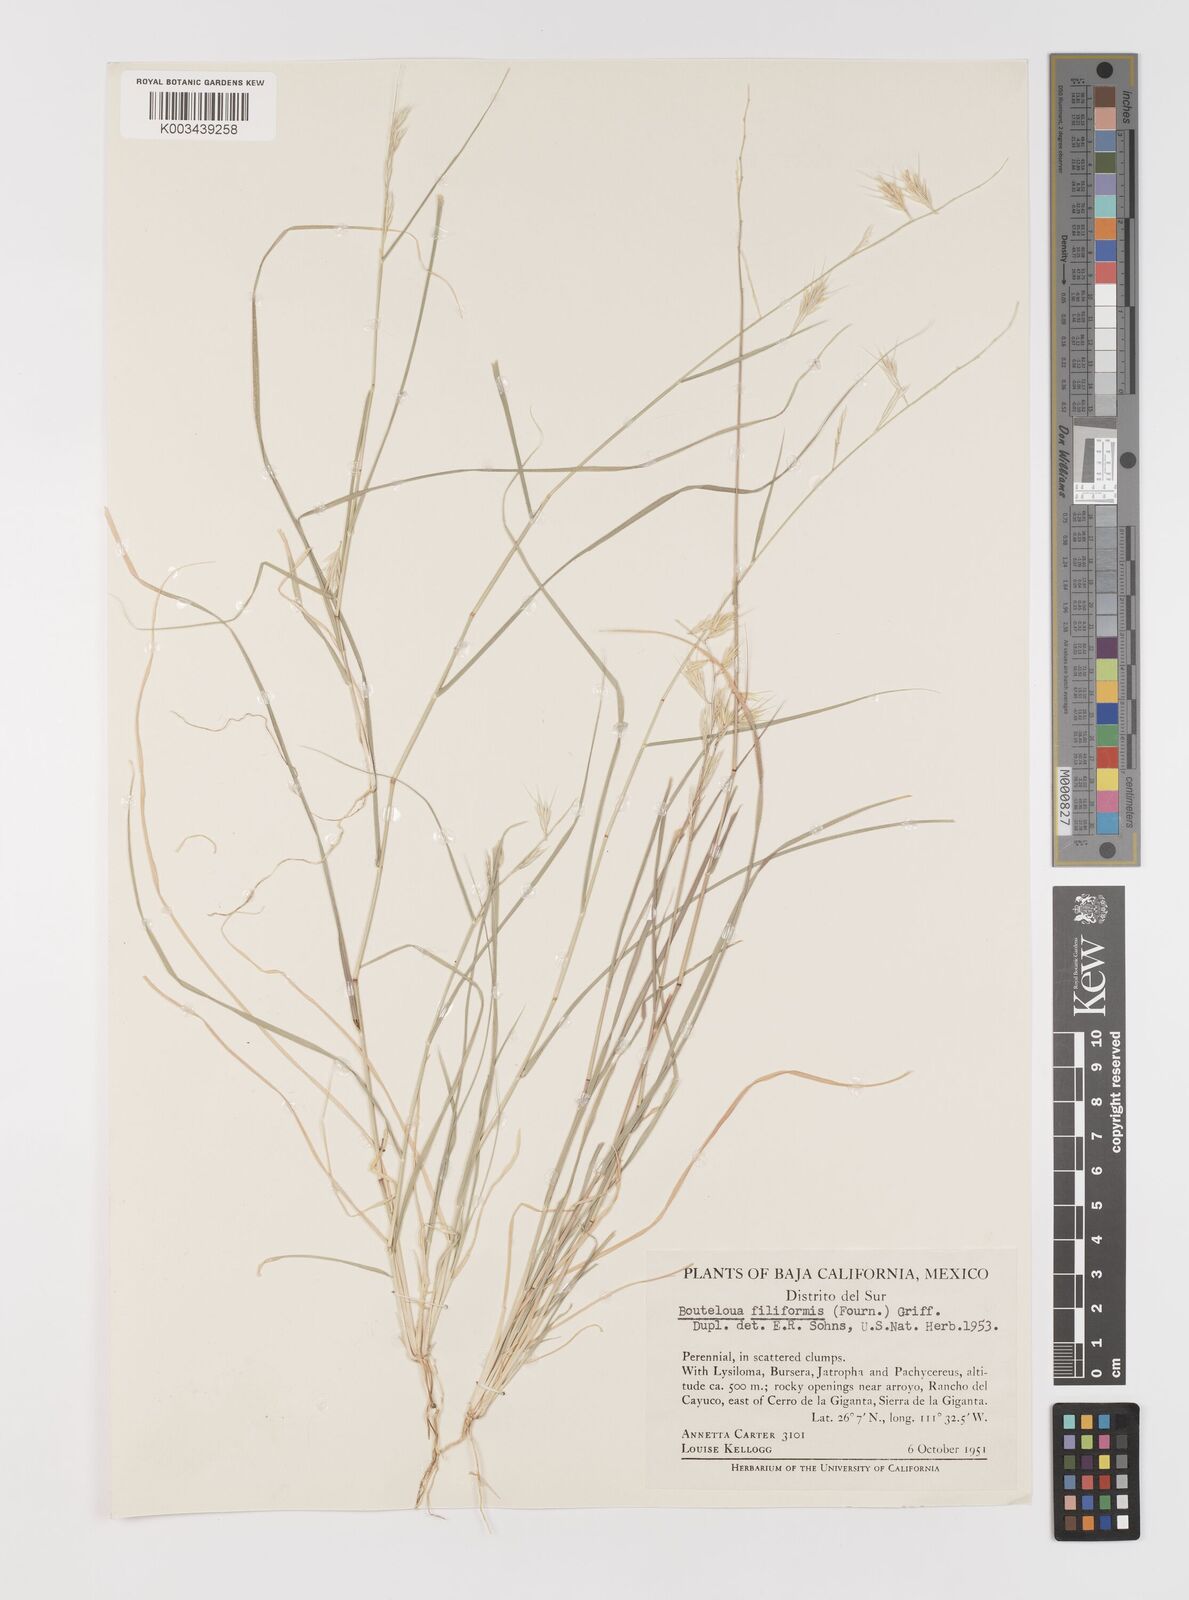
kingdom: Plantae
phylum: Tracheophyta
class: Liliopsida
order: Poales
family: Poaceae
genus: Bouteloua
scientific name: Bouteloua repens
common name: Slender grama
